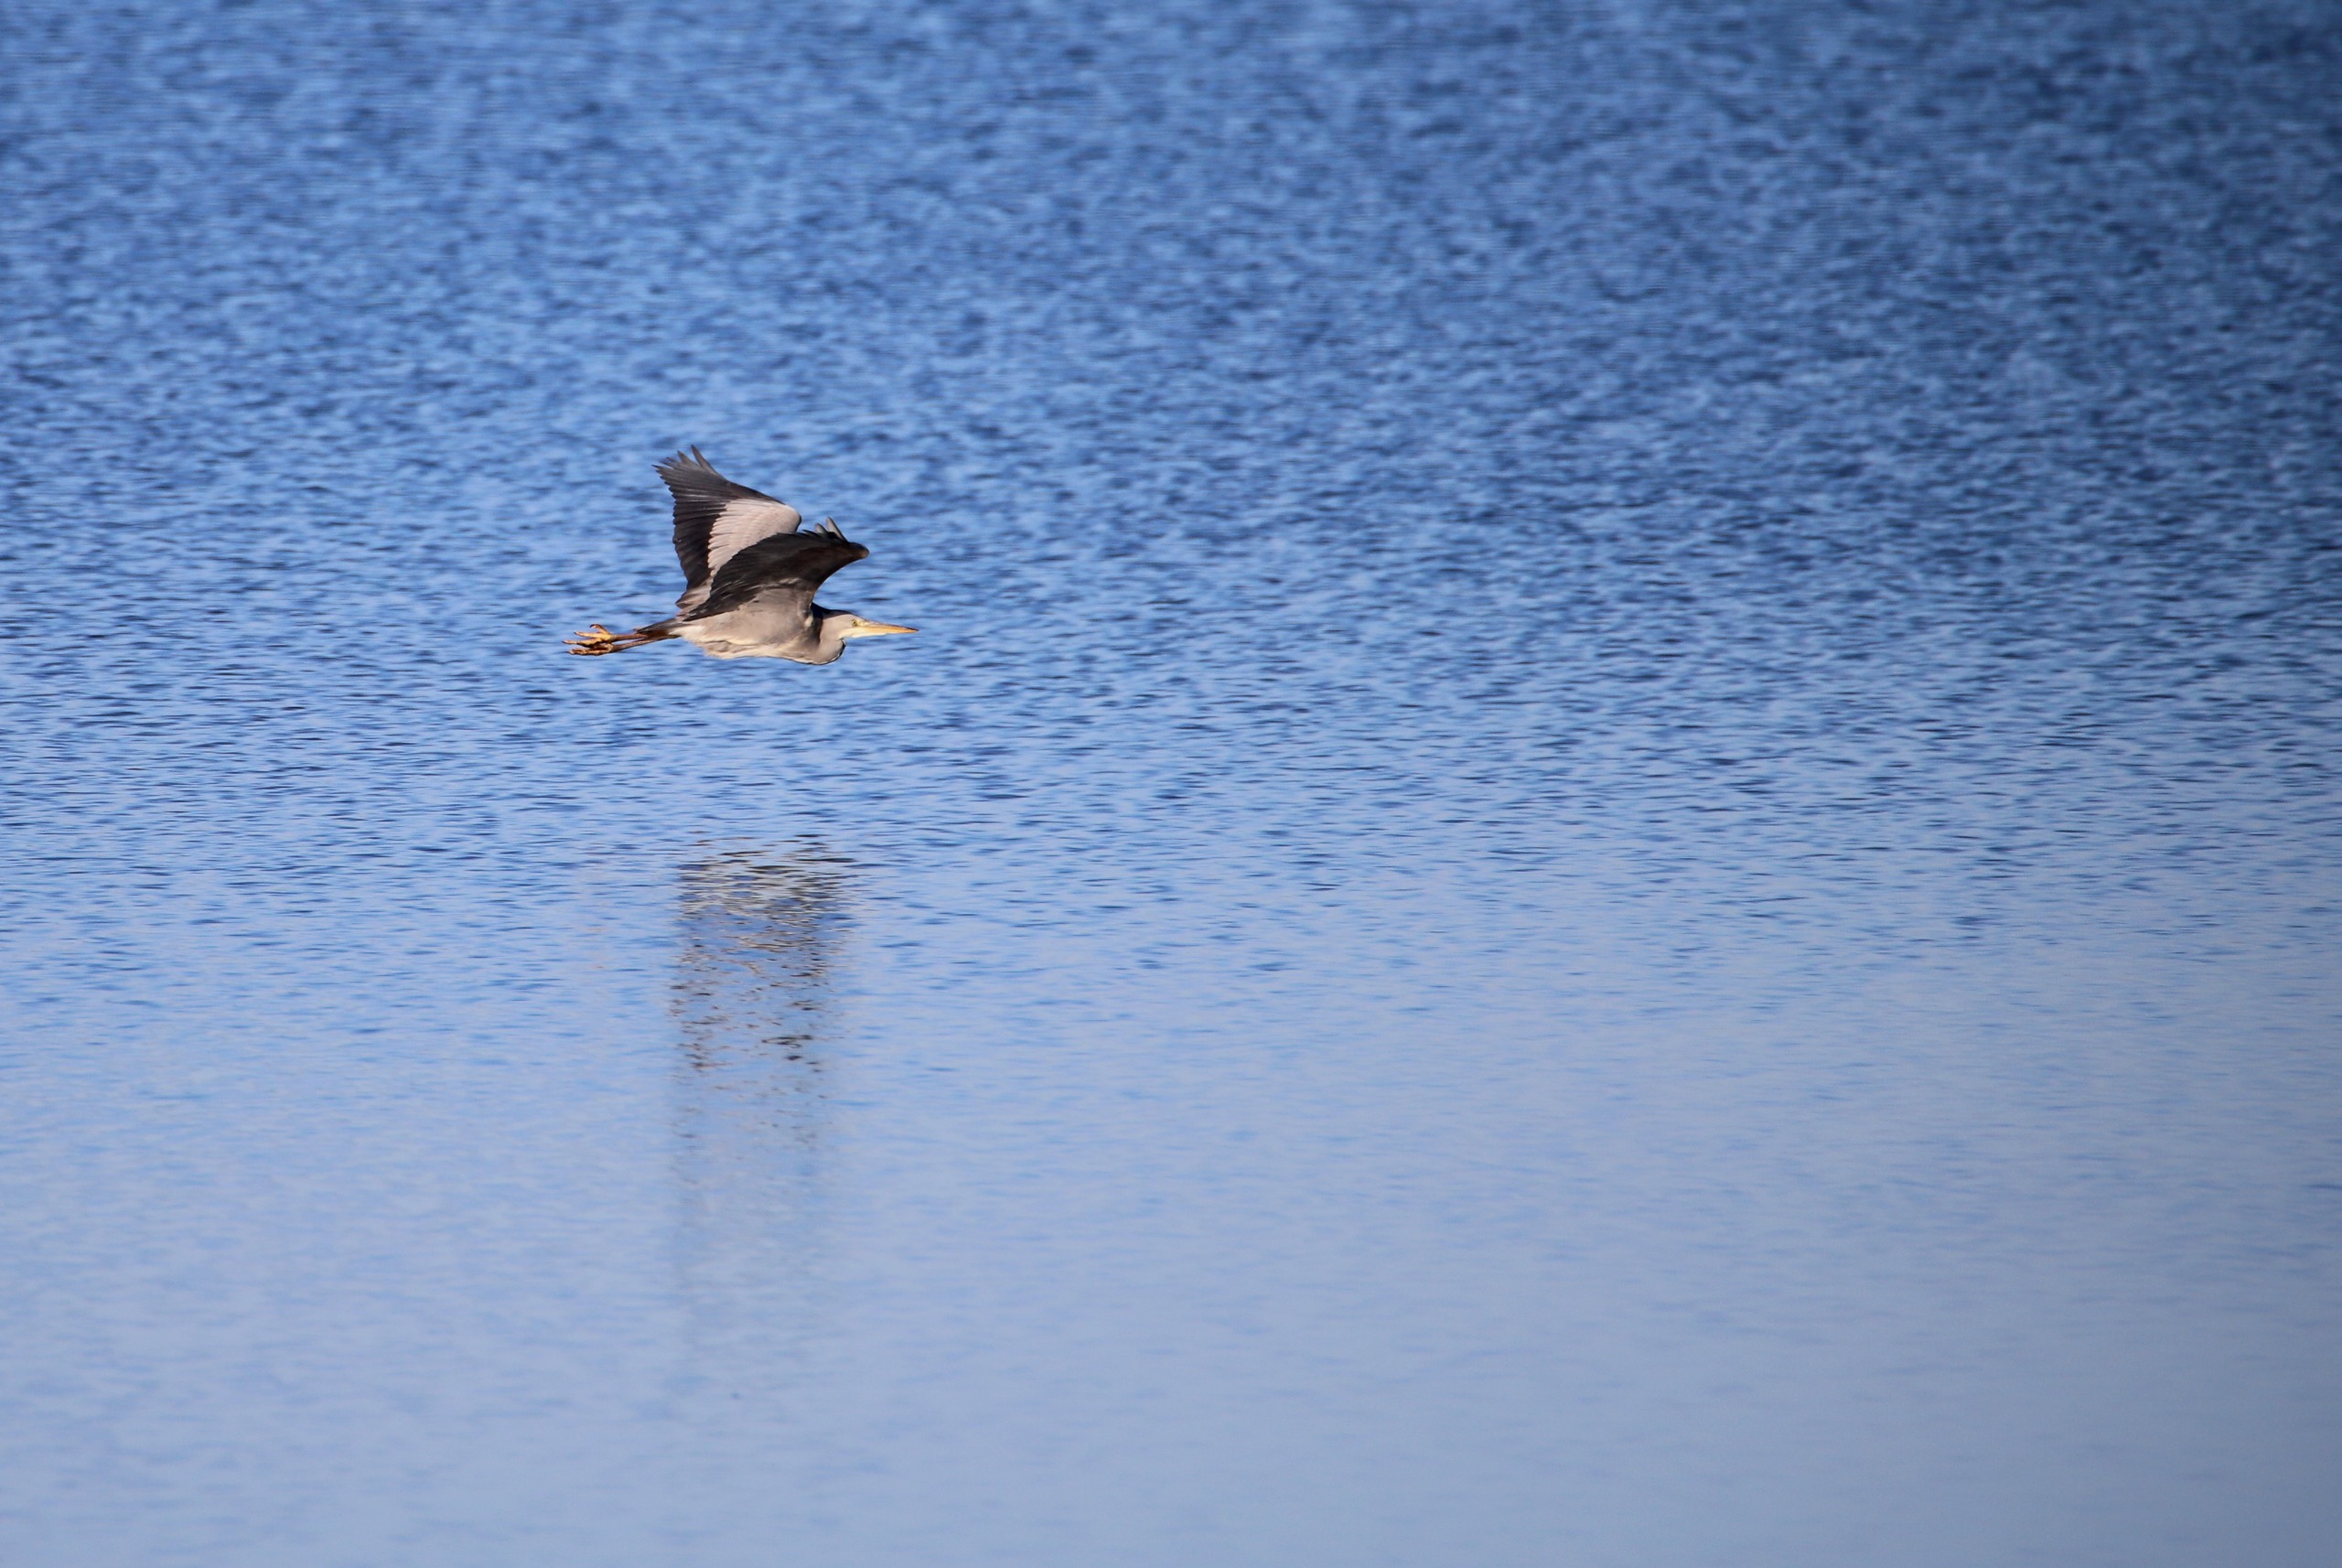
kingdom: Animalia
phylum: Chordata
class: Aves
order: Pelecaniformes
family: Ardeidae
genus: Ardea
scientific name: Ardea cinerea
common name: Fiskehejre
